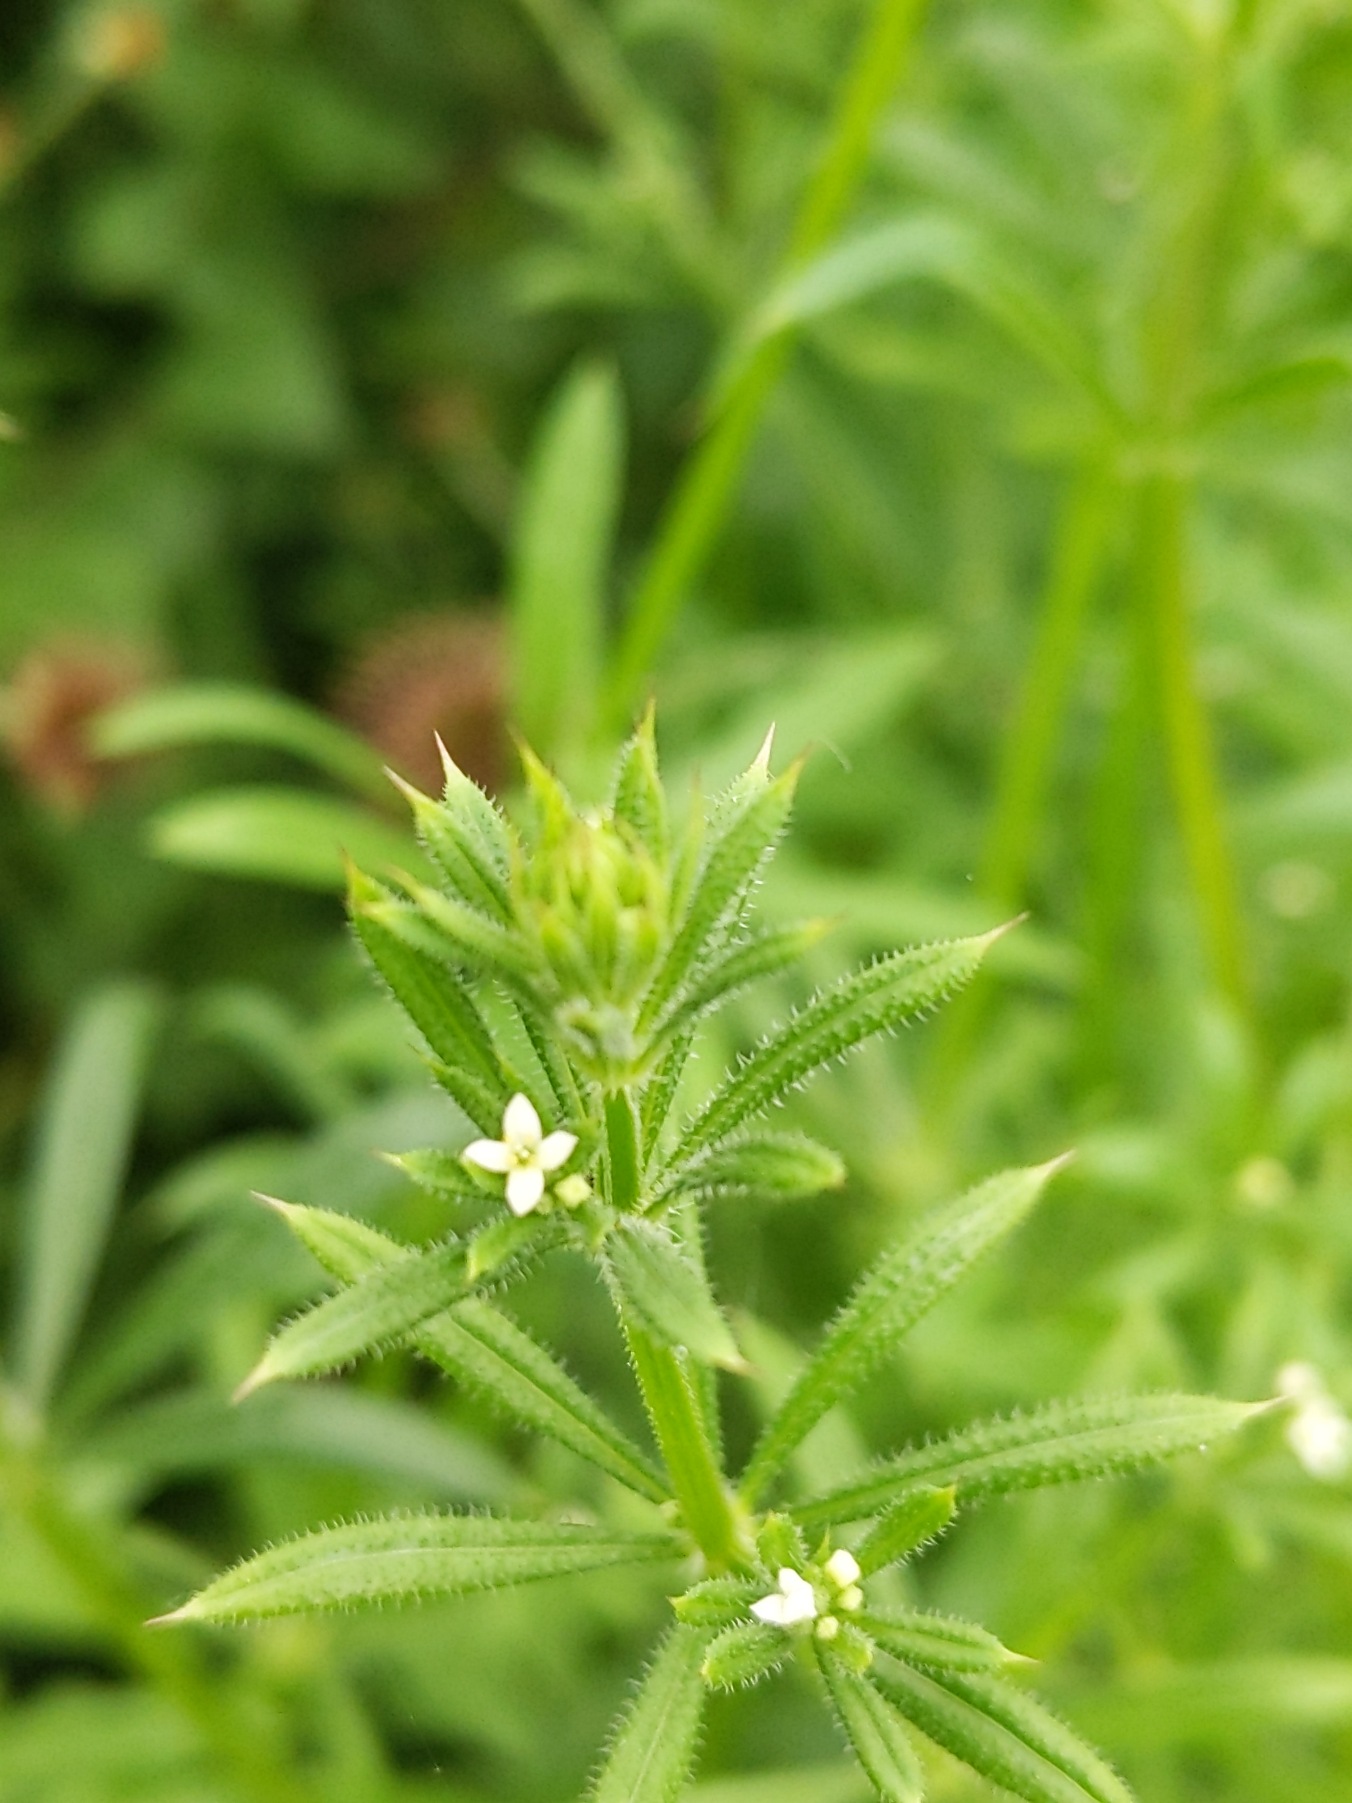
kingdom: Plantae
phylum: Tracheophyta
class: Magnoliopsida
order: Gentianales
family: Rubiaceae
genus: Galium
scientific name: Galium aparine
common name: Burre-snerre
